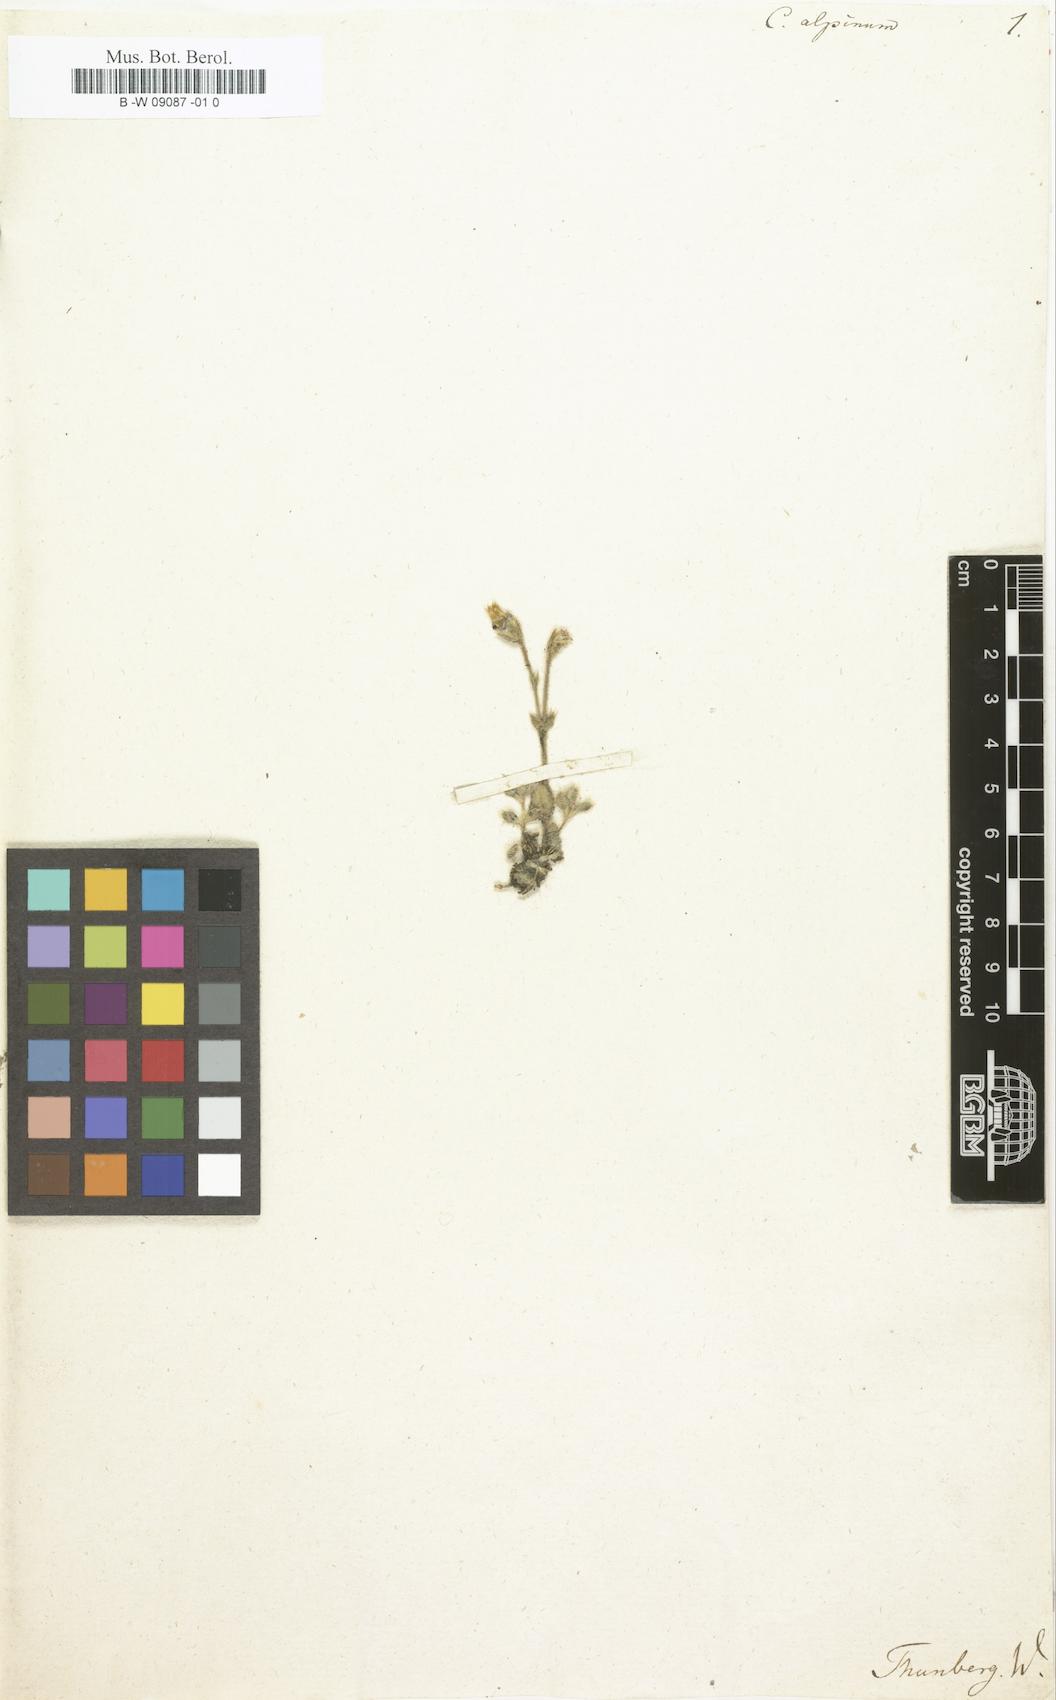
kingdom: Plantae
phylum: Tracheophyta
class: Magnoliopsida
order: Caryophyllales
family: Caryophyllaceae
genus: Cerastium
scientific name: Cerastium alpinum
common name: Alpine mouse-ear
